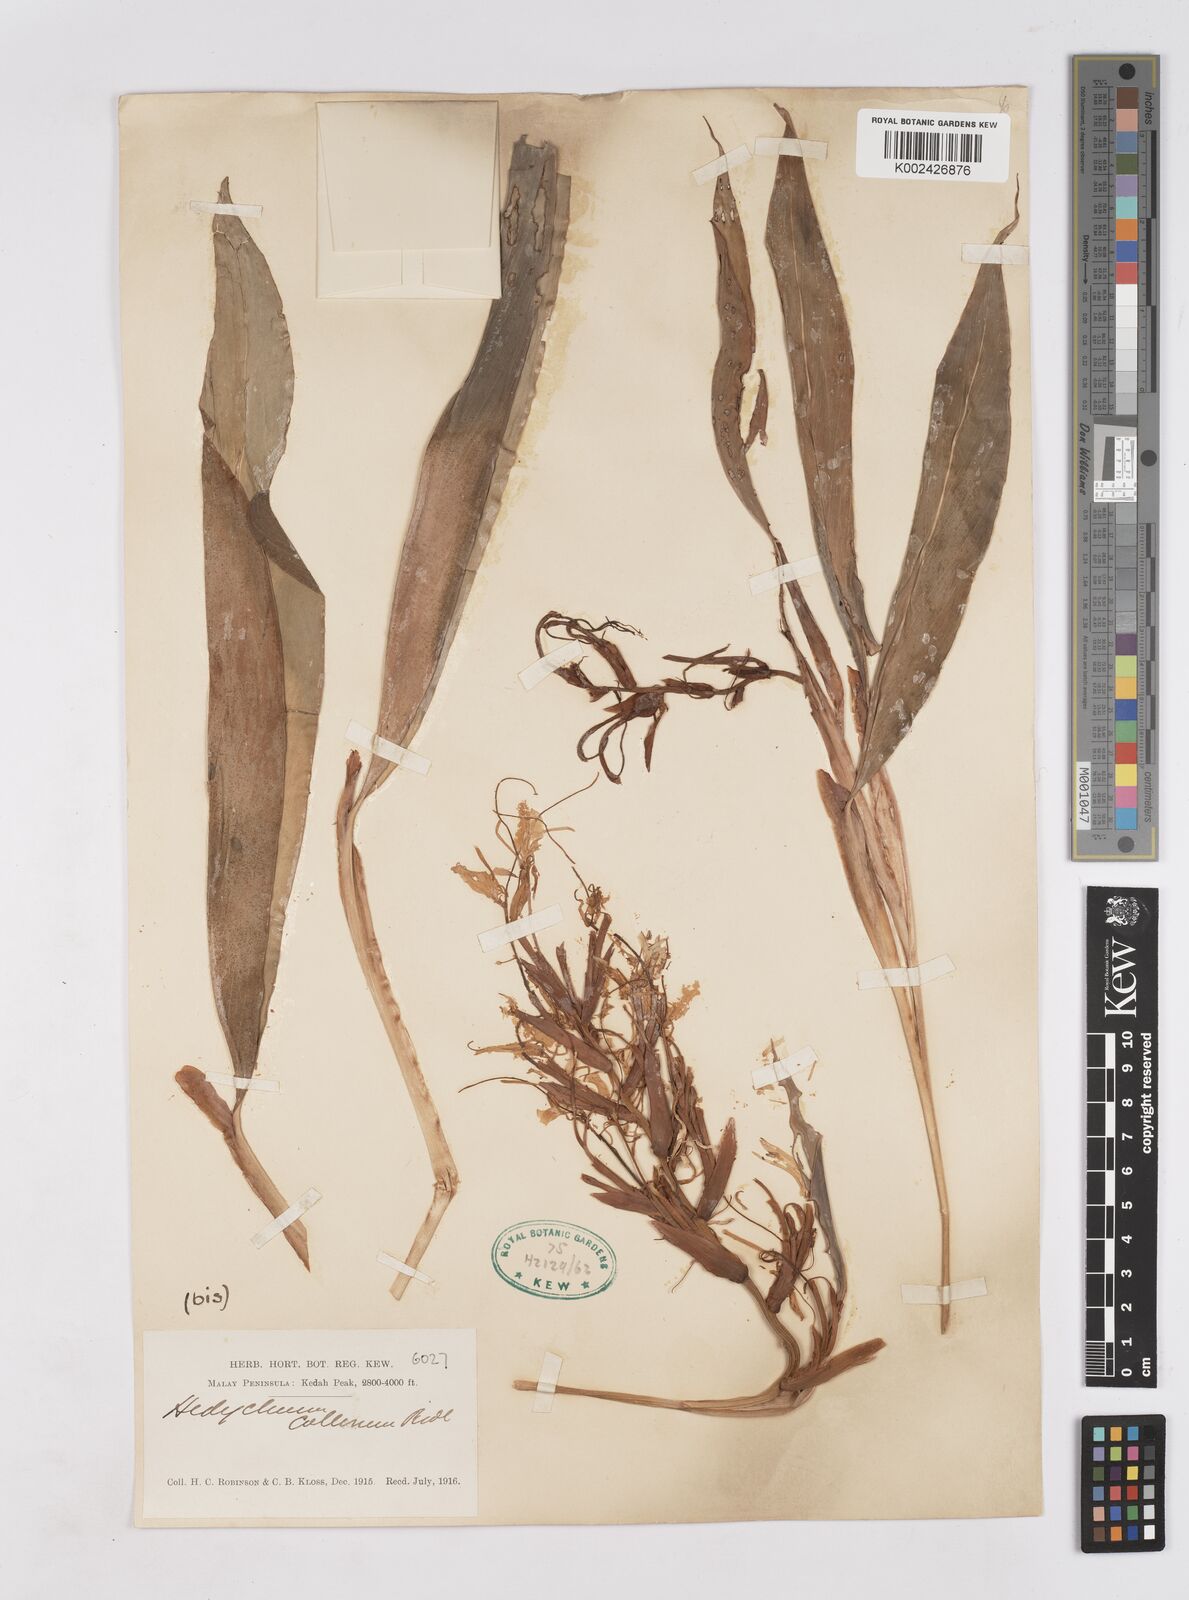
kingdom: Plantae
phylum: Tracheophyta
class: Liliopsida
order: Zingiberales
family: Zingiberaceae
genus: Hedychium
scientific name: Hedychium collinum
